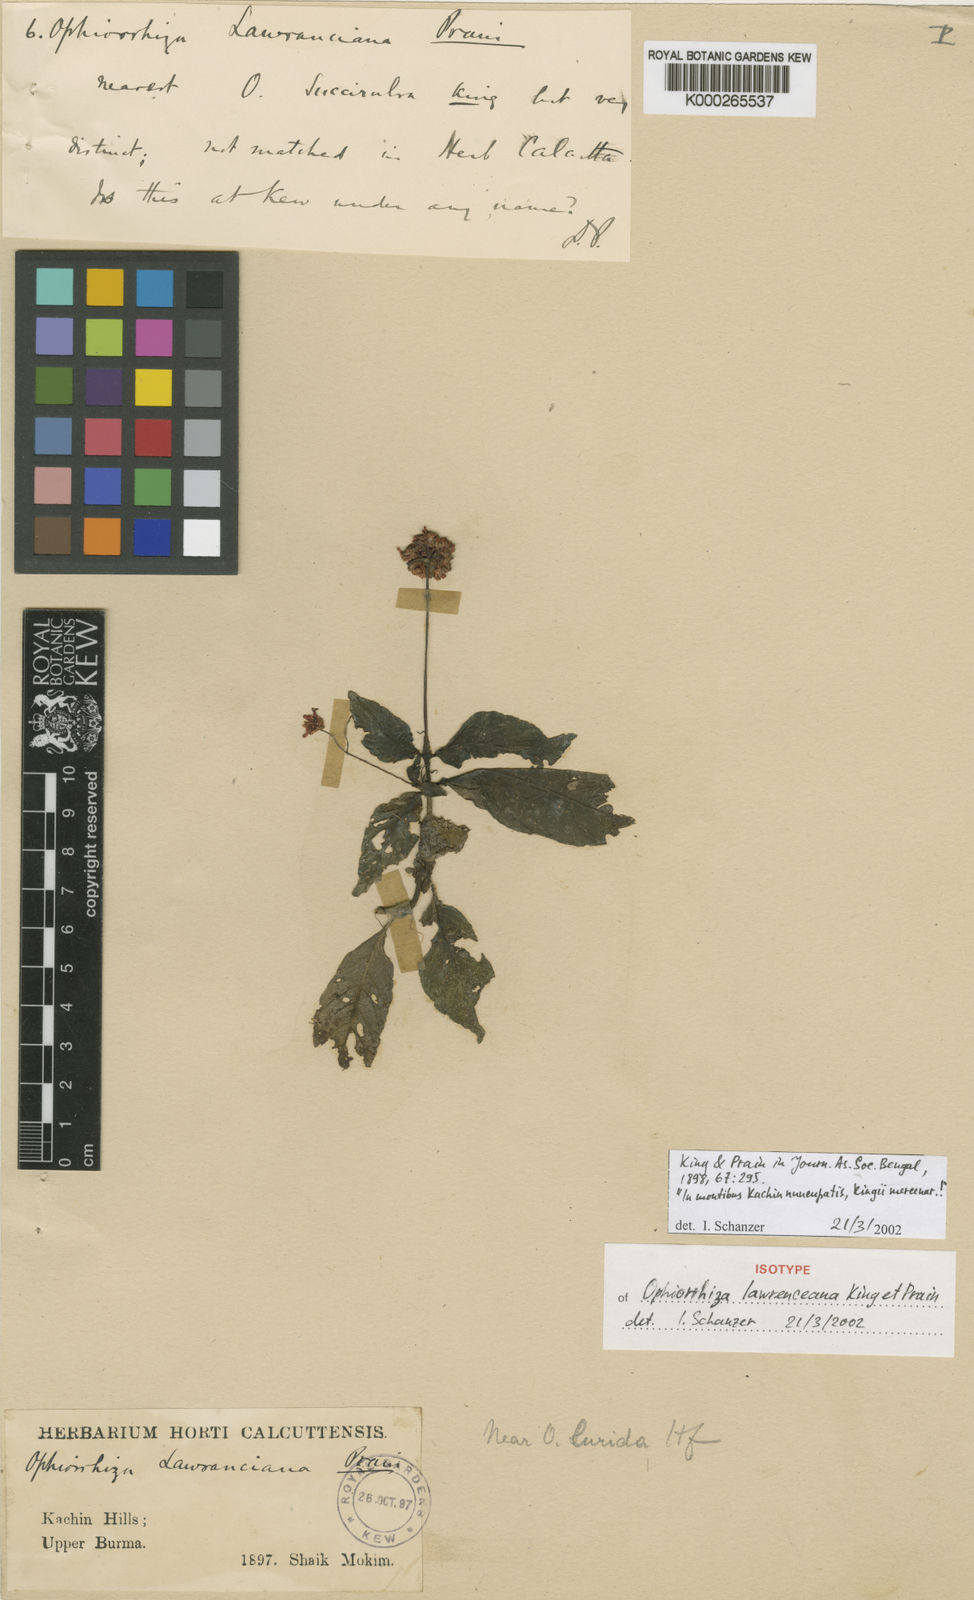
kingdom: Plantae
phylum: Tracheophyta
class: Magnoliopsida
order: Gentianales
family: Rubiaceae
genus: Ophiorrhiza
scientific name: Ophiorrhiza lawrenceana
